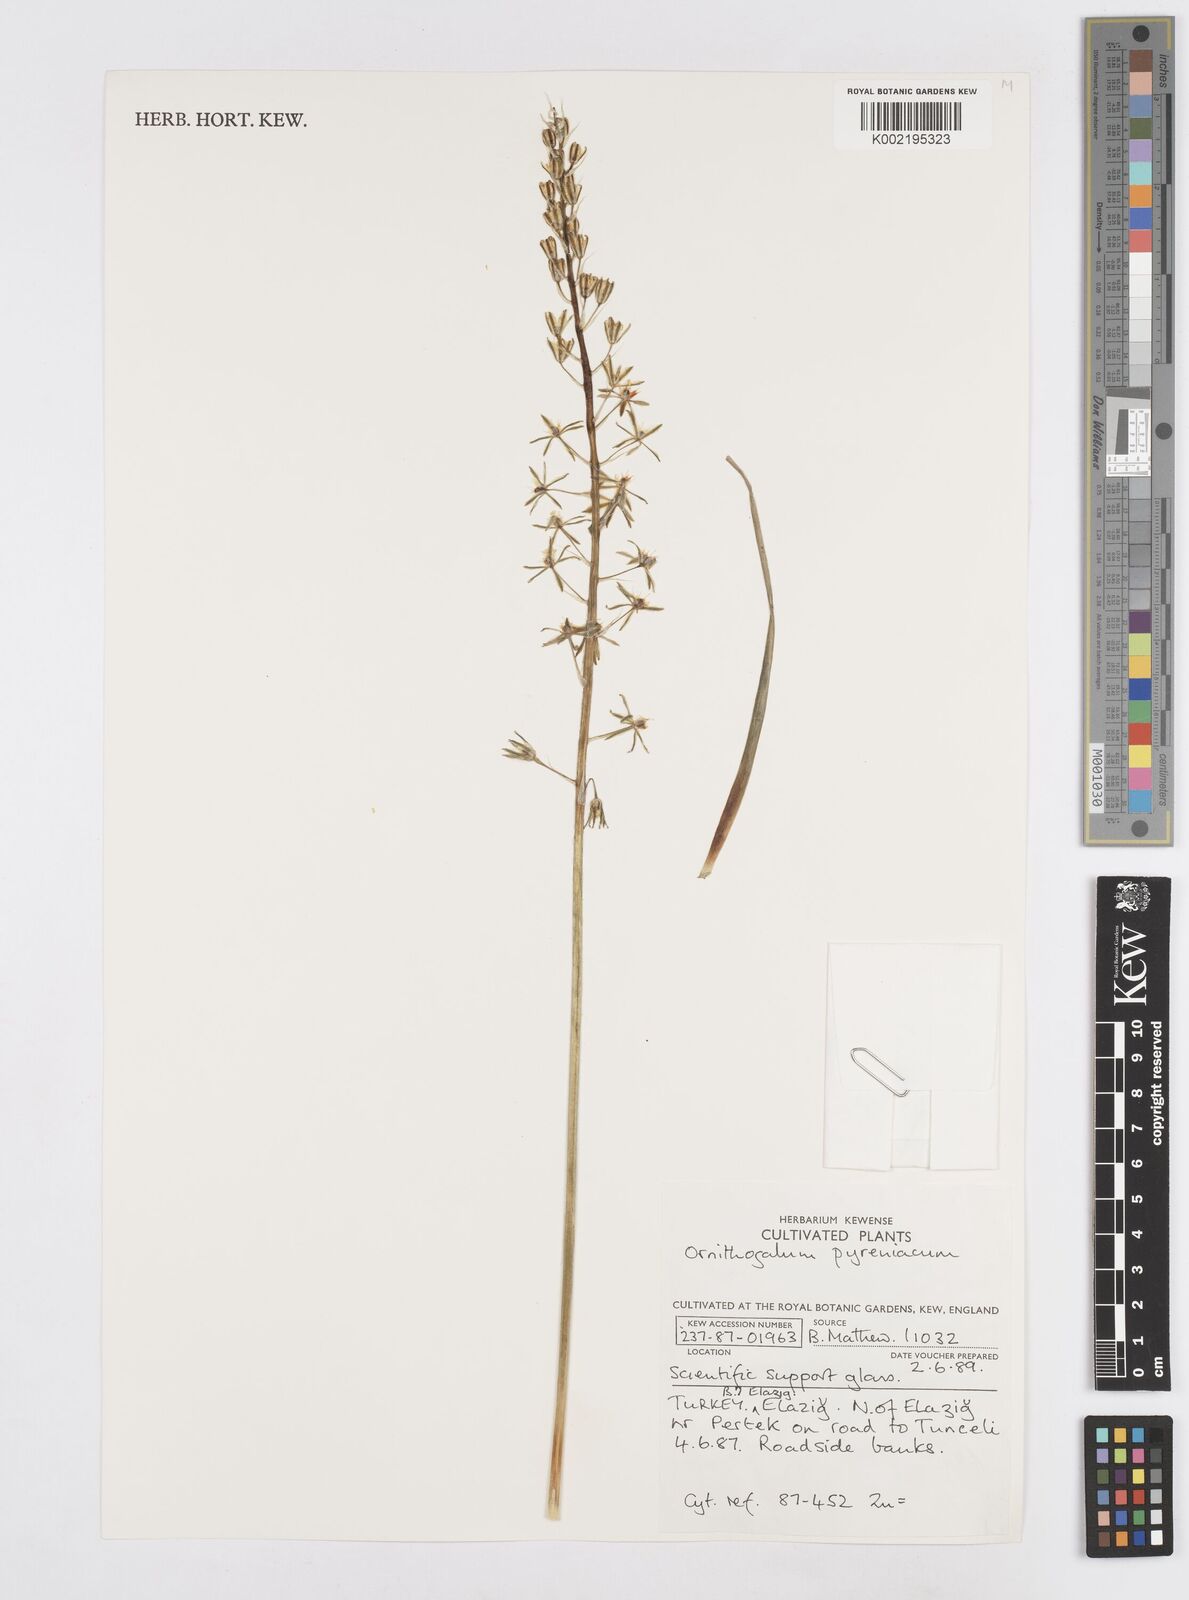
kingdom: Plantae
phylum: Tracheophyta
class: Liliopsida
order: Asparagales
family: Asparagaceae
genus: Ornithogalum
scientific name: Ornithogalum pyrenaicum
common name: Spiked star-of-bethlehem
